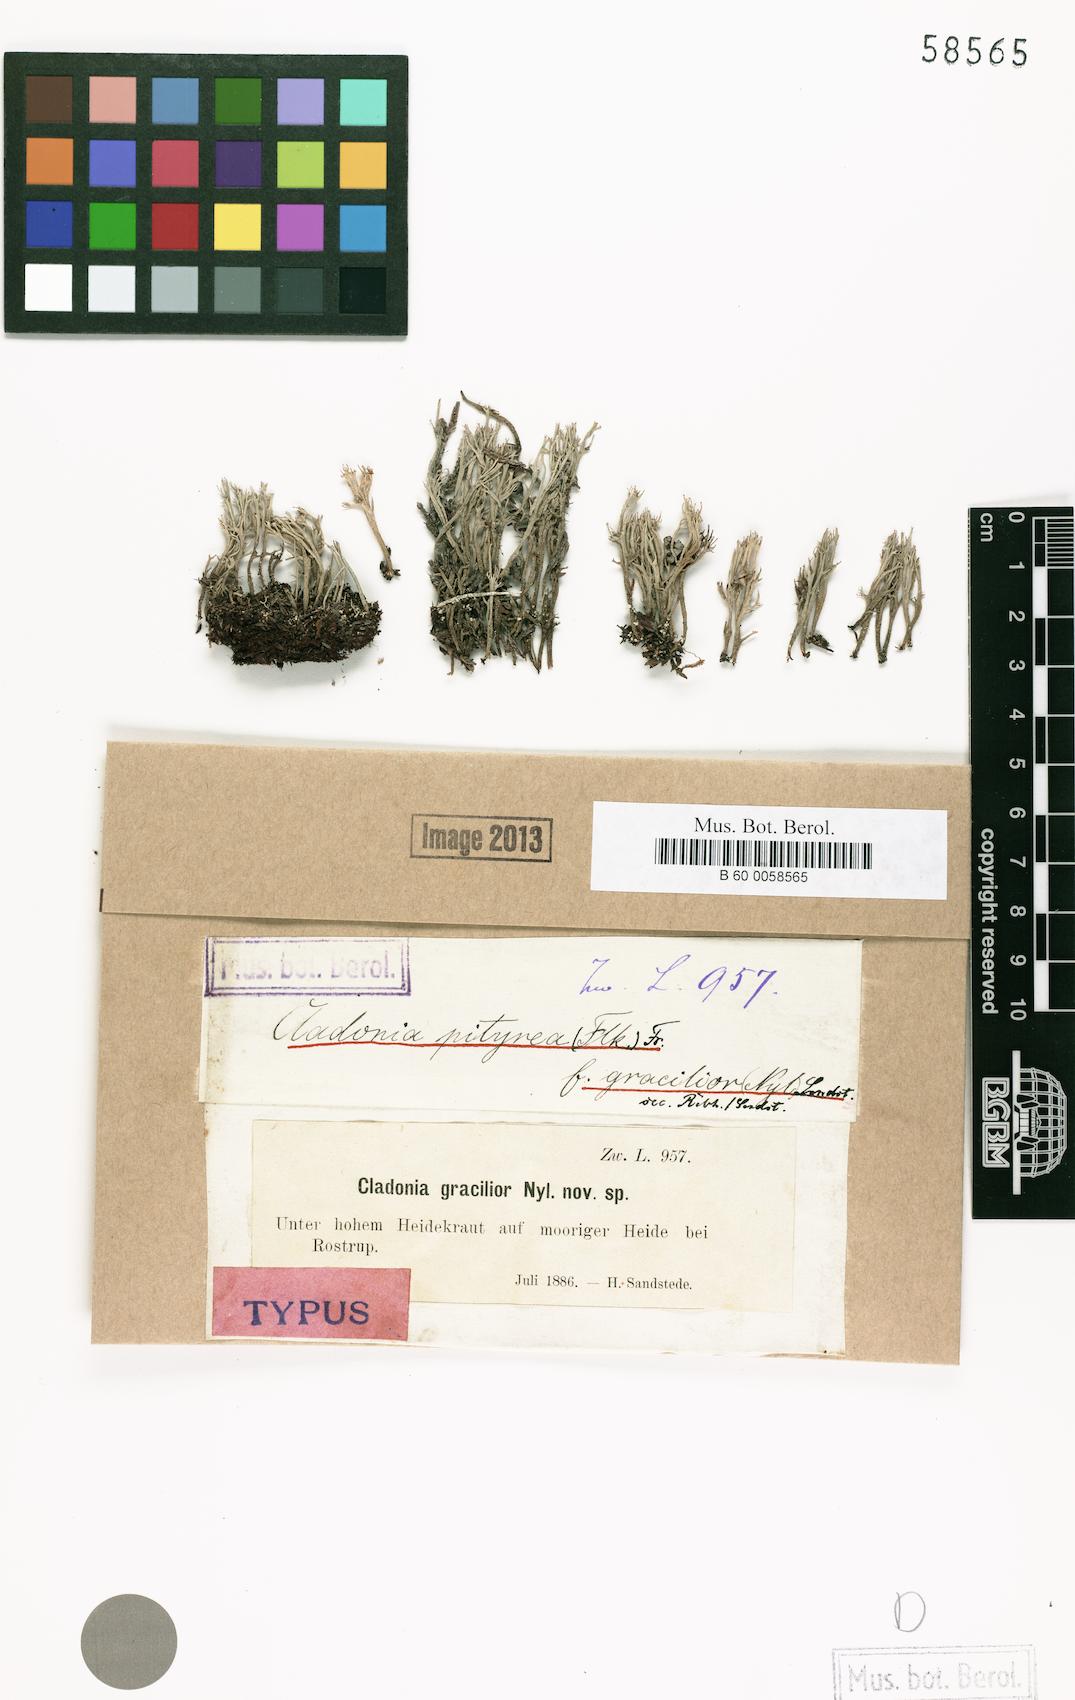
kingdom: Fungi
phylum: Ascomycota
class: Lecanoromycetes
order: Lecanorales
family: Cladoniaceae
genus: Cladonia
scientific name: Cladonia ramulosa
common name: Branched pixie-cup lichen
